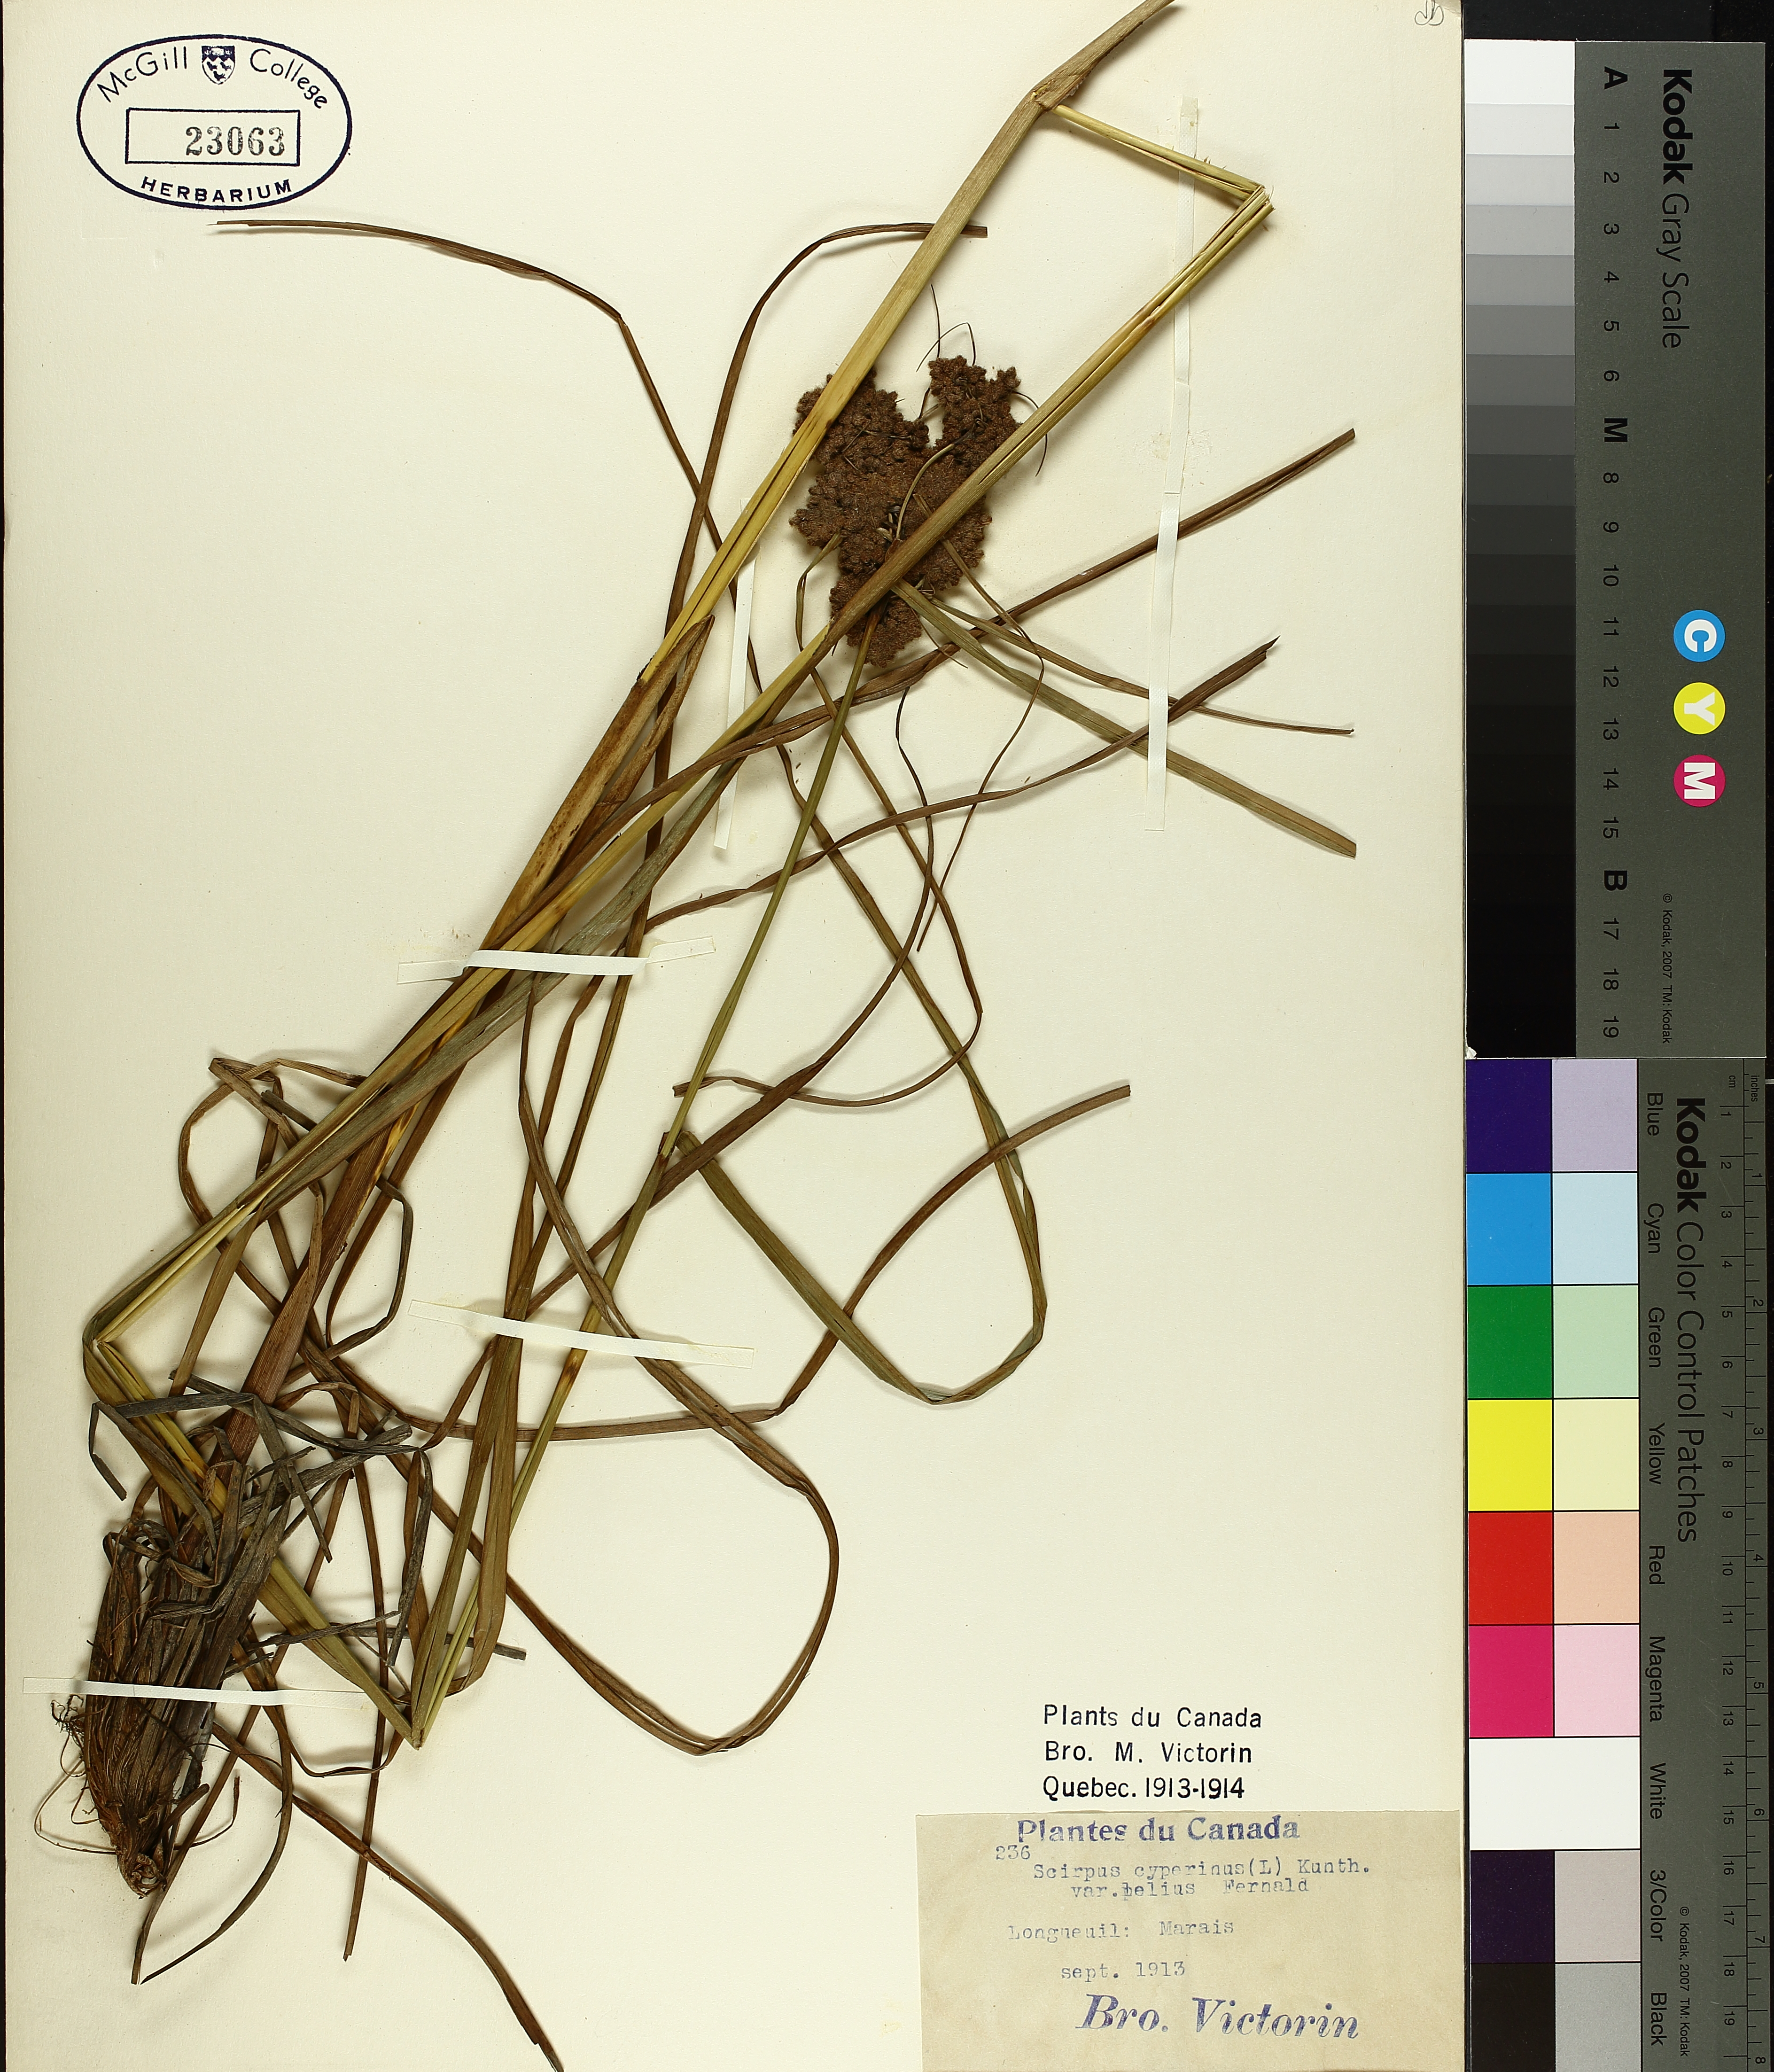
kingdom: Plantae
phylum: Tracheophyta
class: Liliopsida
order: Poales
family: Cyperaceae
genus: Scirpus
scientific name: Scirpus cyperinus
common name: Black-sheathed bulrush
